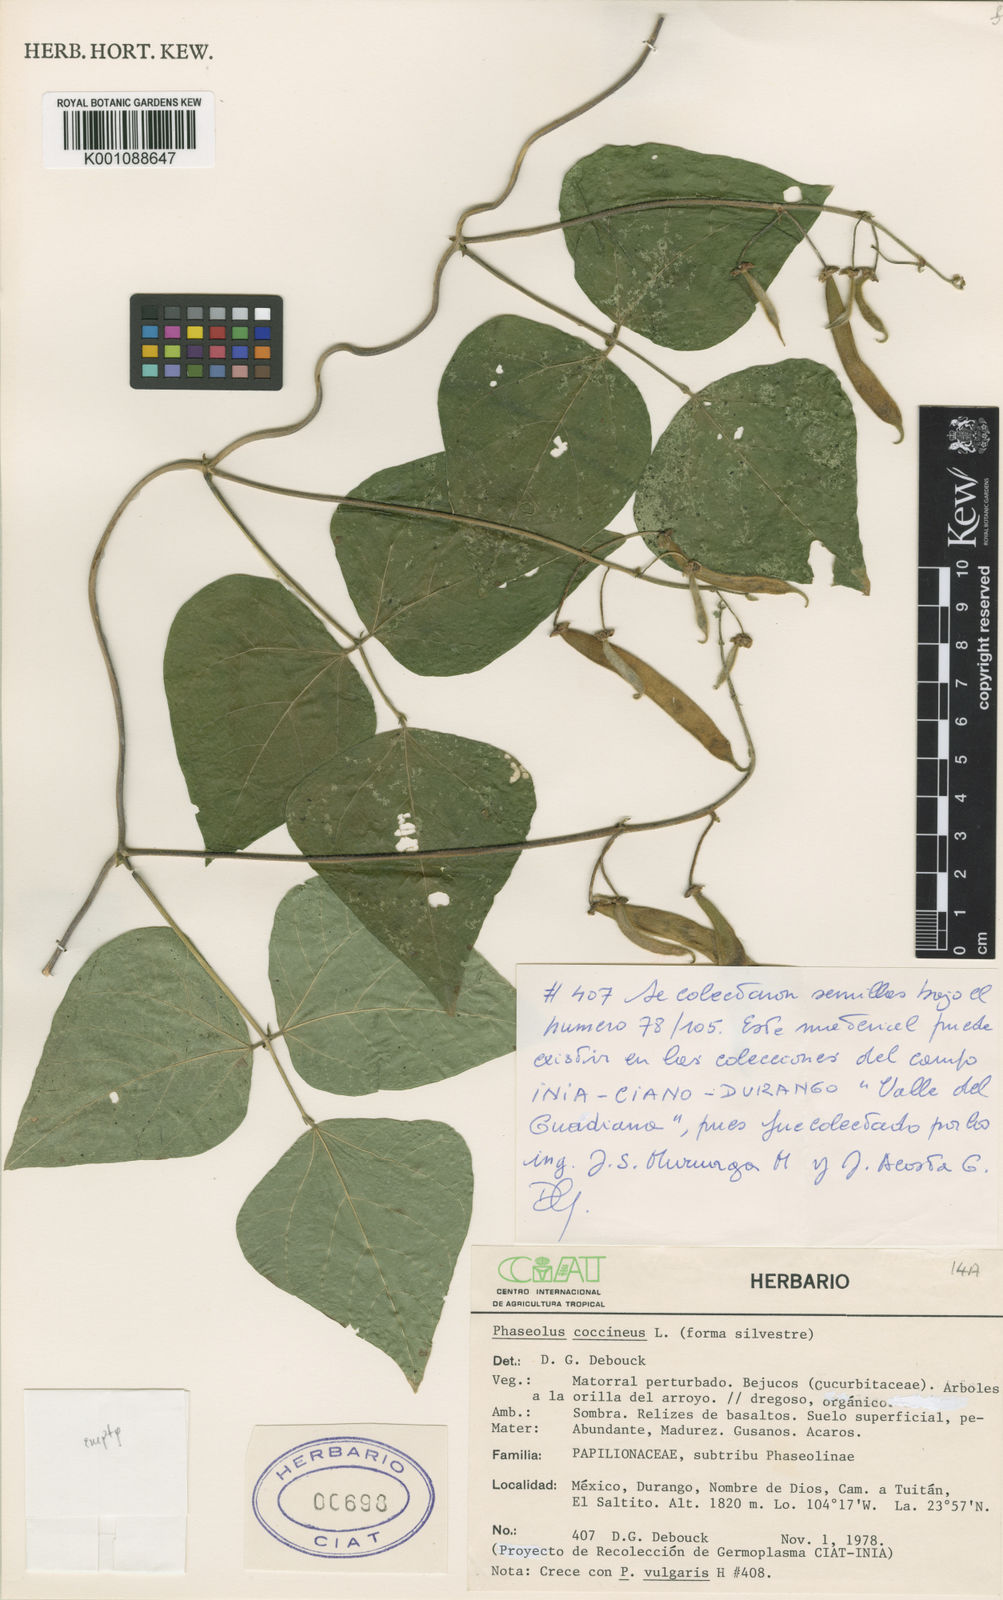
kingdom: Plantae
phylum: Tracheophyta
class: Magnoliopsida
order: Fabales
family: Fabaceae
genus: Phaseolus
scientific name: Phaseolus coccineus
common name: Runner bean
